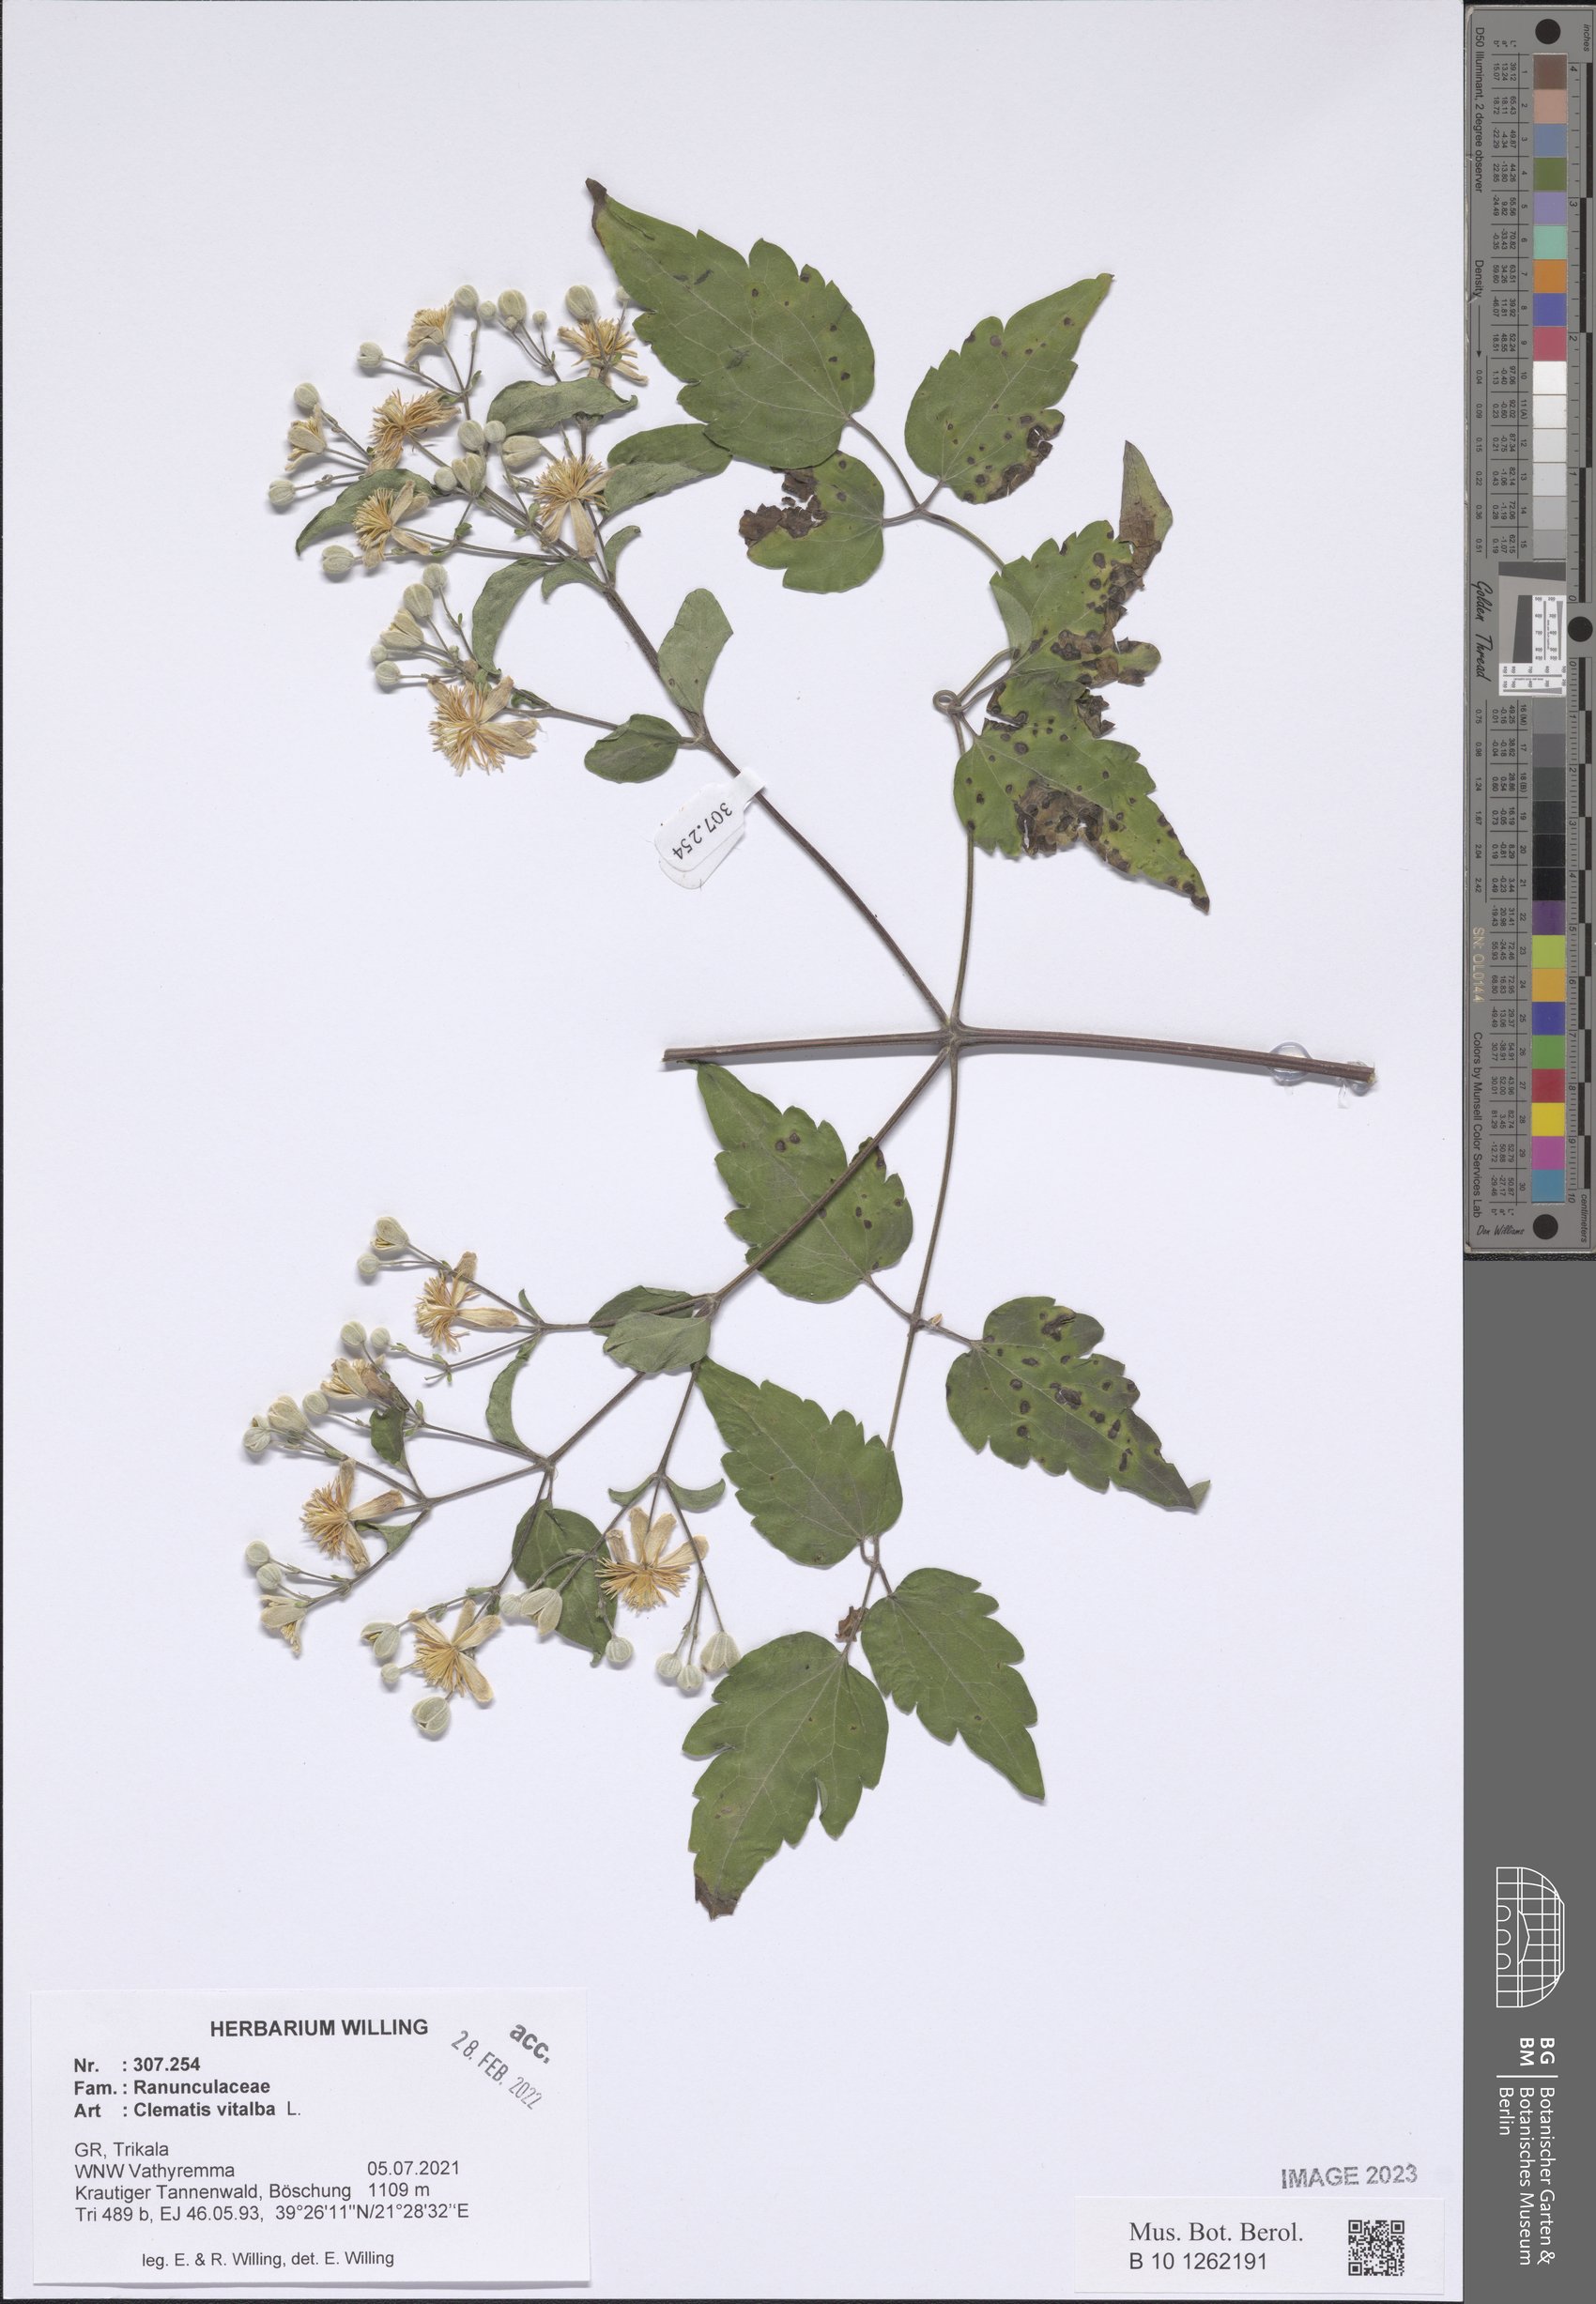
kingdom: Plantae
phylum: Tracheophyta
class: Magnoliopsida
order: Ranunculales
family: Ranunculaceae
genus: Clematis
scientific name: Clematis vitalba
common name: Evergreen clematis
